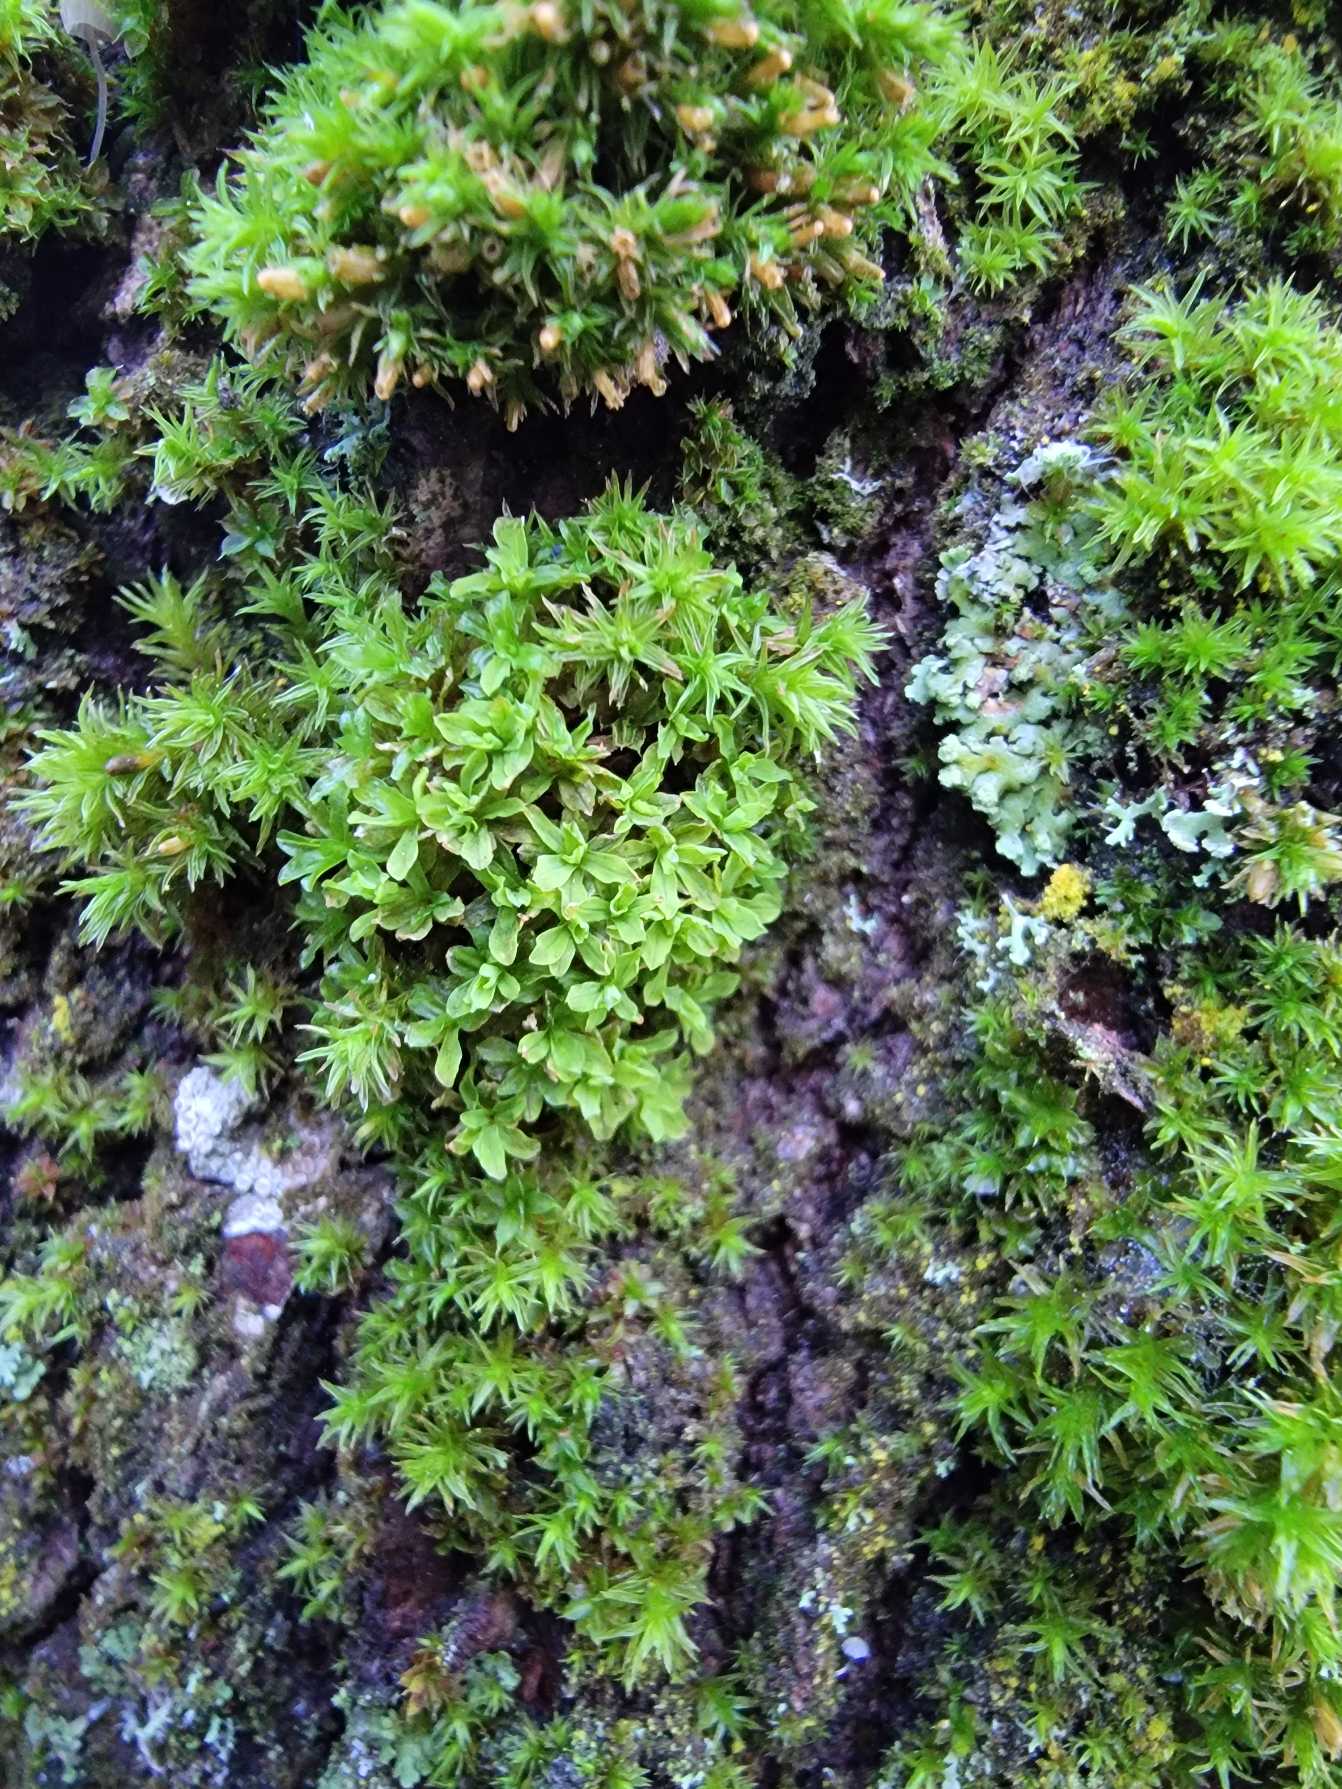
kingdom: Plantae
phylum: Bryophyta
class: Bryopsida
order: Pottiales
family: Pottiaceae
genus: Syntrichia
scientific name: Syntrichia latifolia
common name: Butbladet hårstjerne
